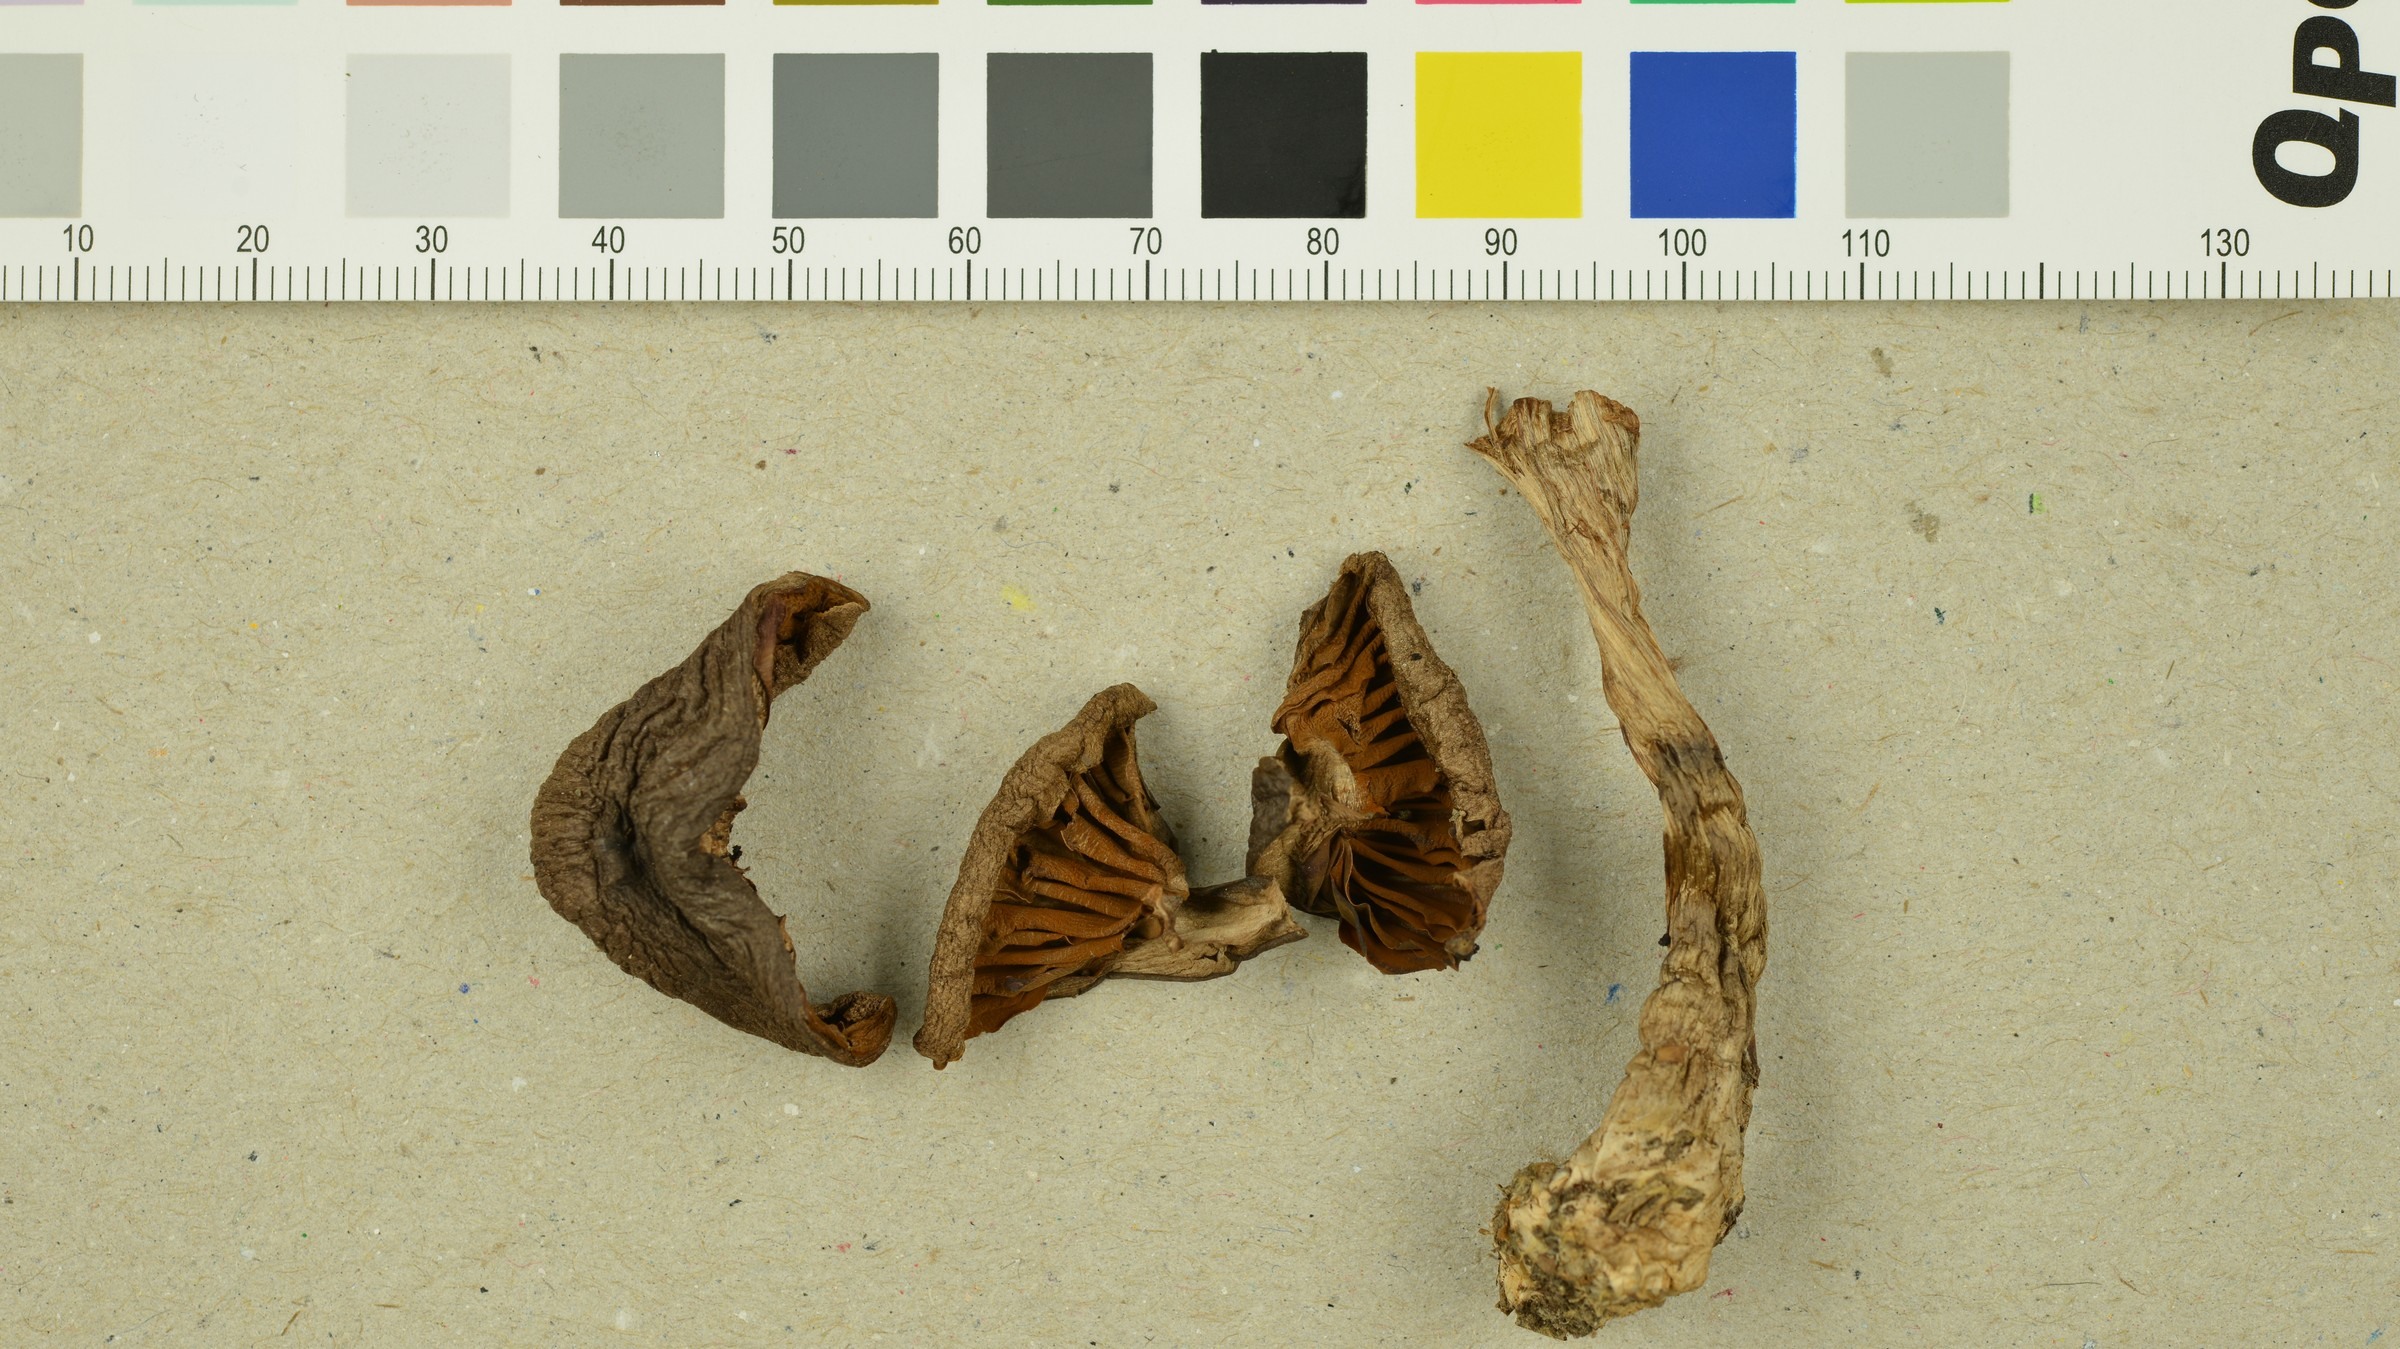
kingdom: Fungi
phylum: Basidiomycota
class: Agaricomycetes
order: Agaricales
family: Cortinariaceae
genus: Cortinarius
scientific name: Cortinarius fuscoperonatus
